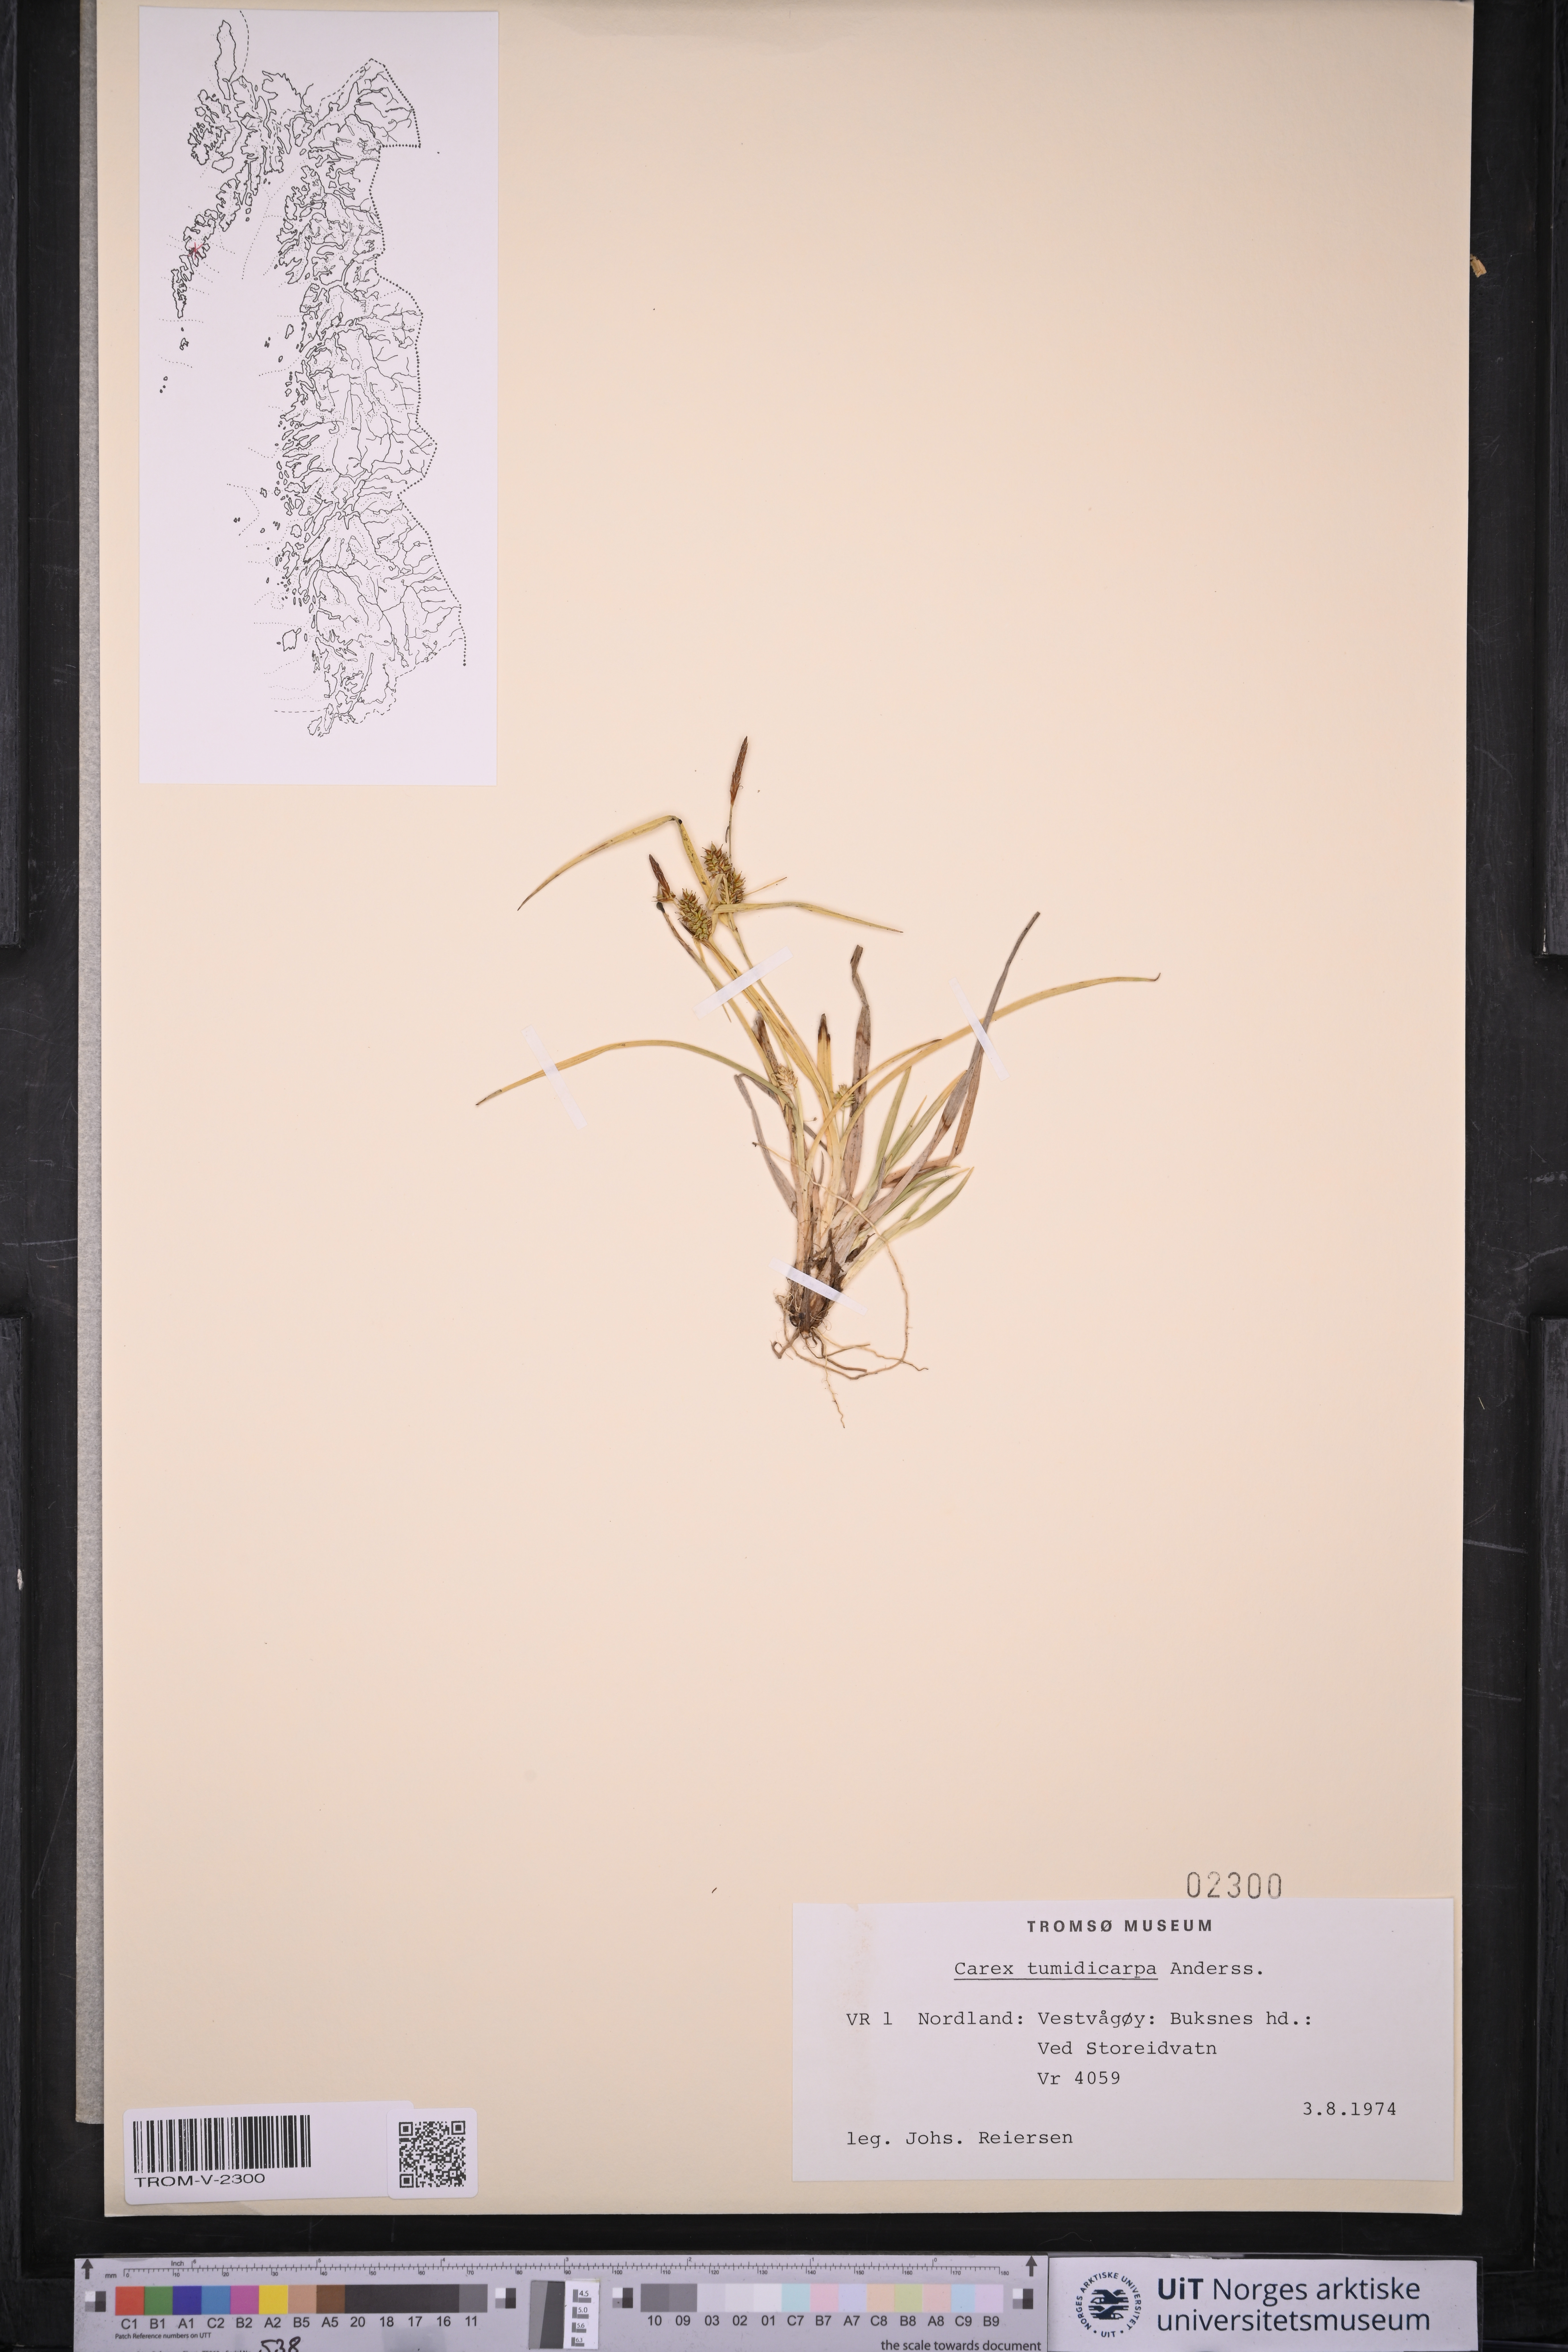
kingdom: Plantae
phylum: Tracheophyta
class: Liliopsida
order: Poales
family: Cyperaceae
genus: Carex
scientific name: Carex demissa
